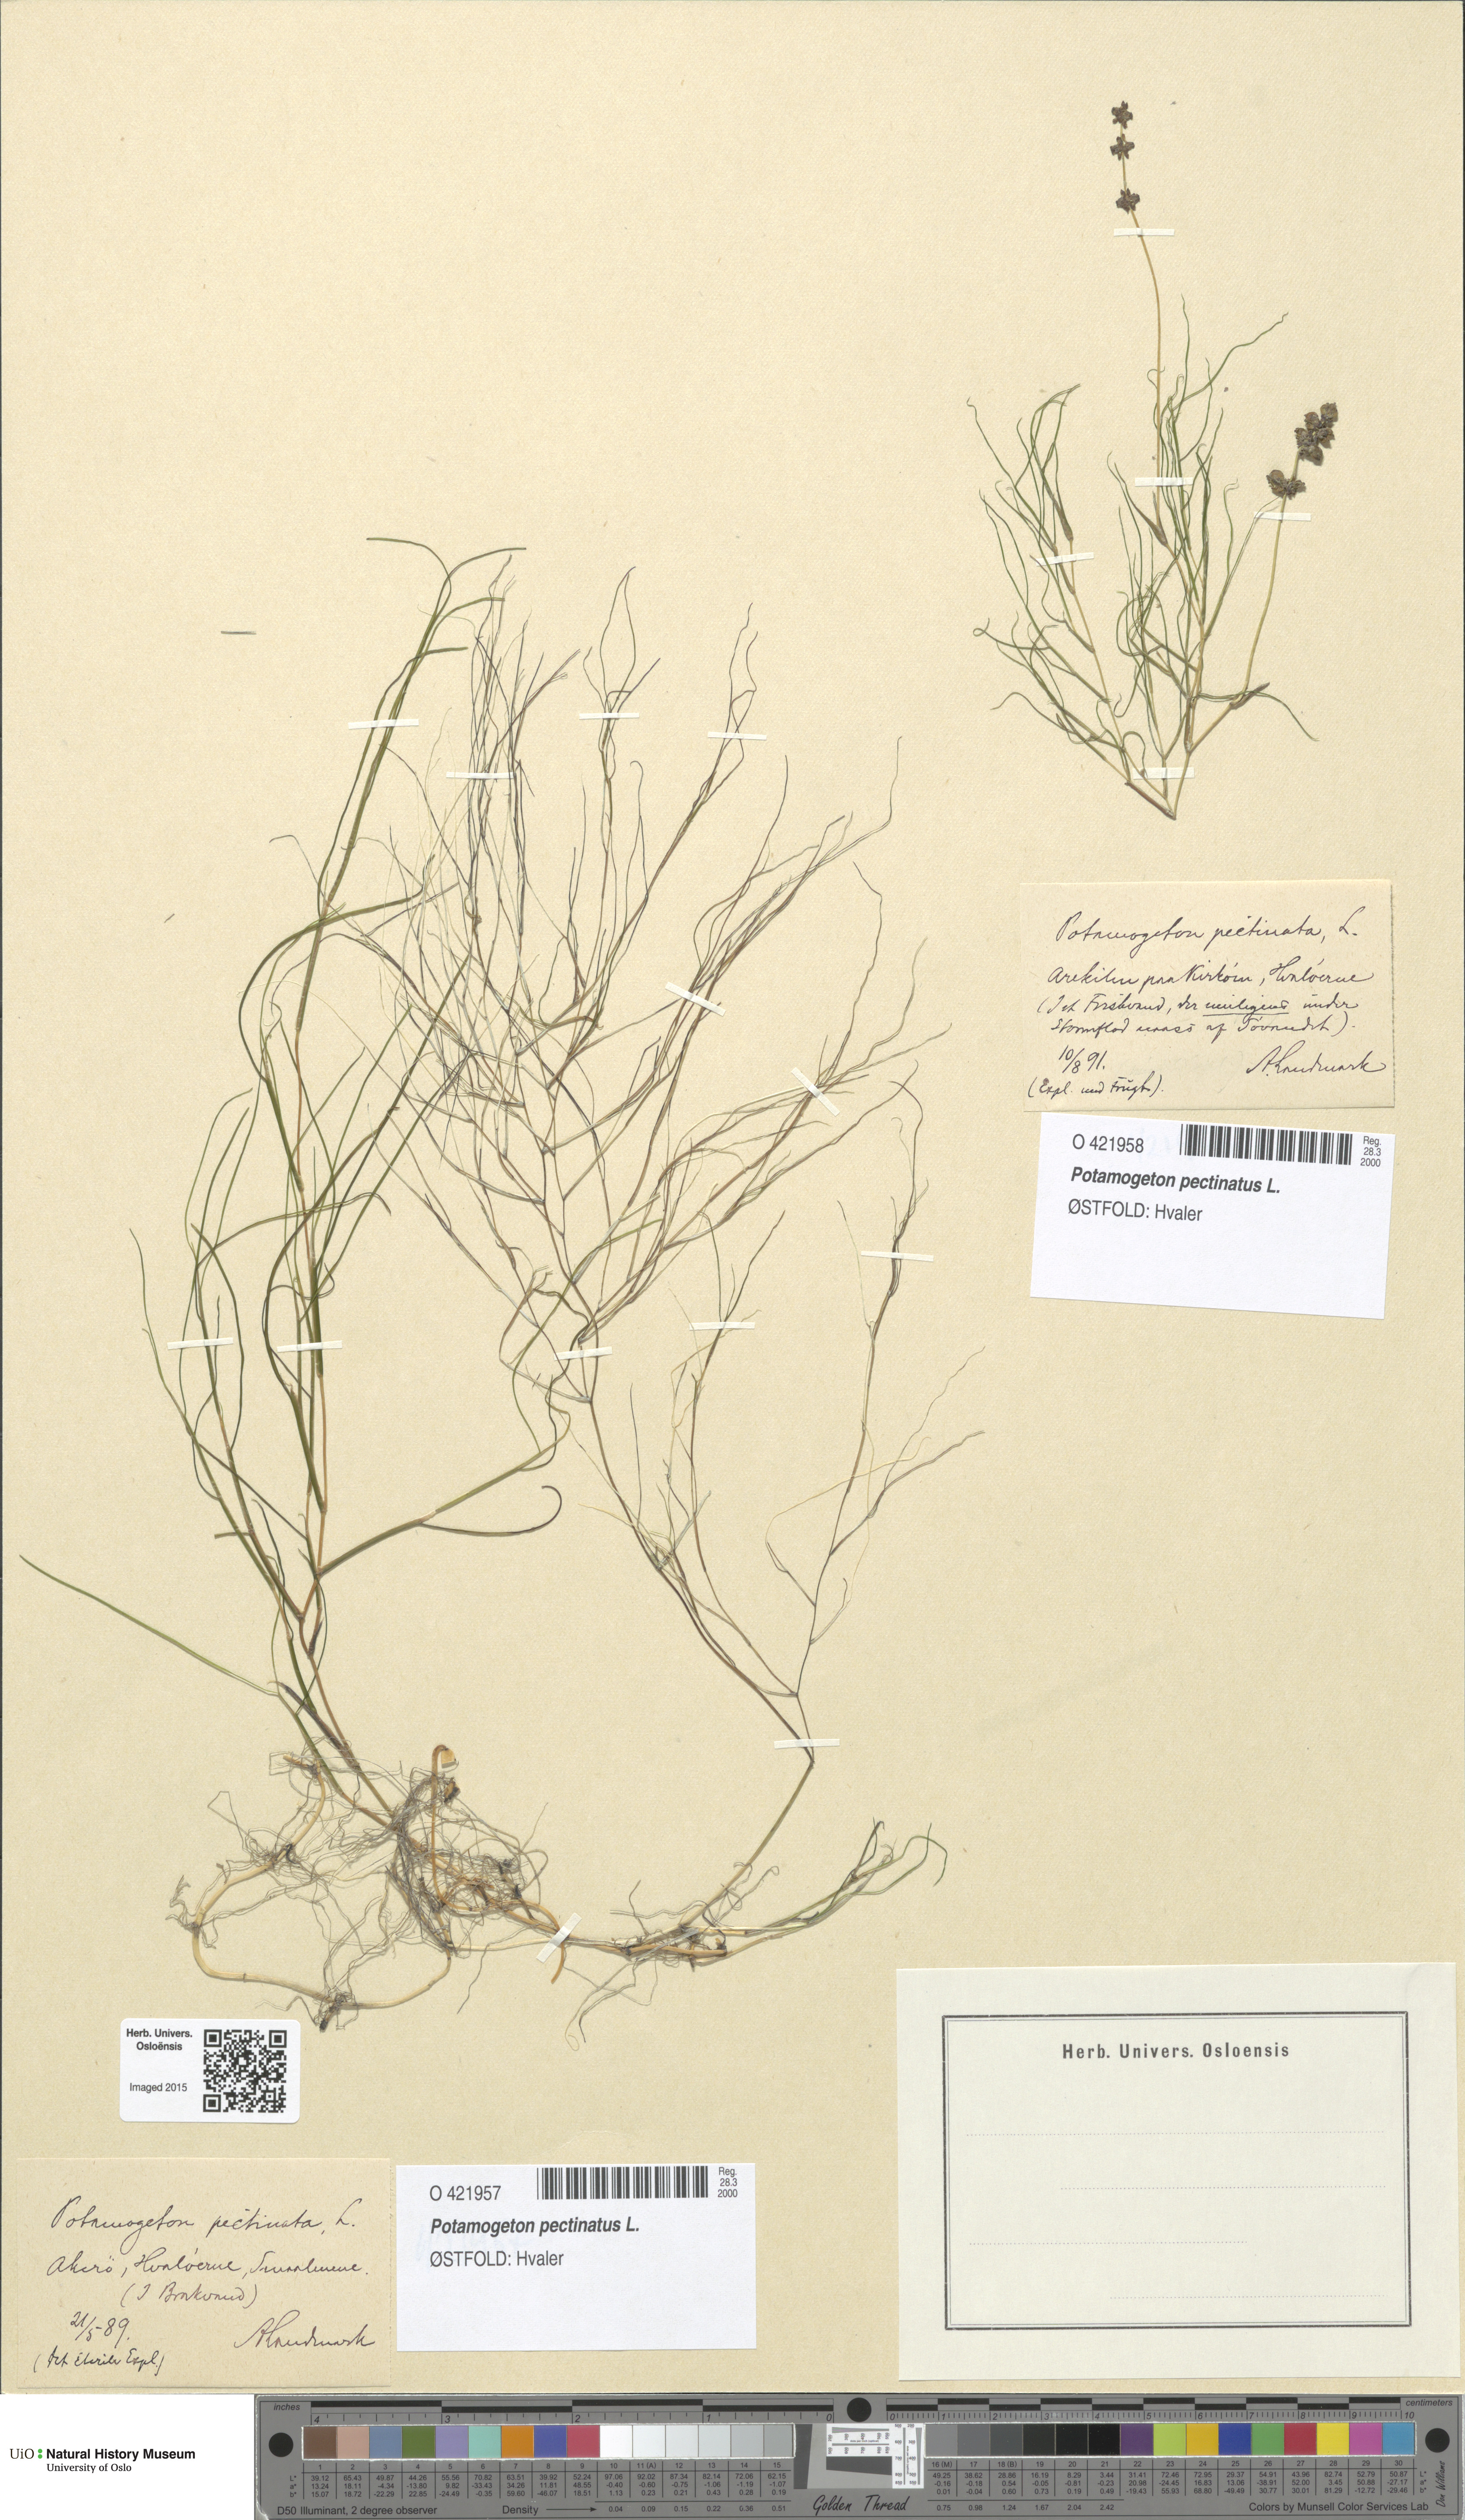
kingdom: Plantae
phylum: Tracheophyta
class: Liliopsida
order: Alismatales
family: Potamogetonaceae
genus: Stuckenia
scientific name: Stuckenia pectinata
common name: Sago pondweed
